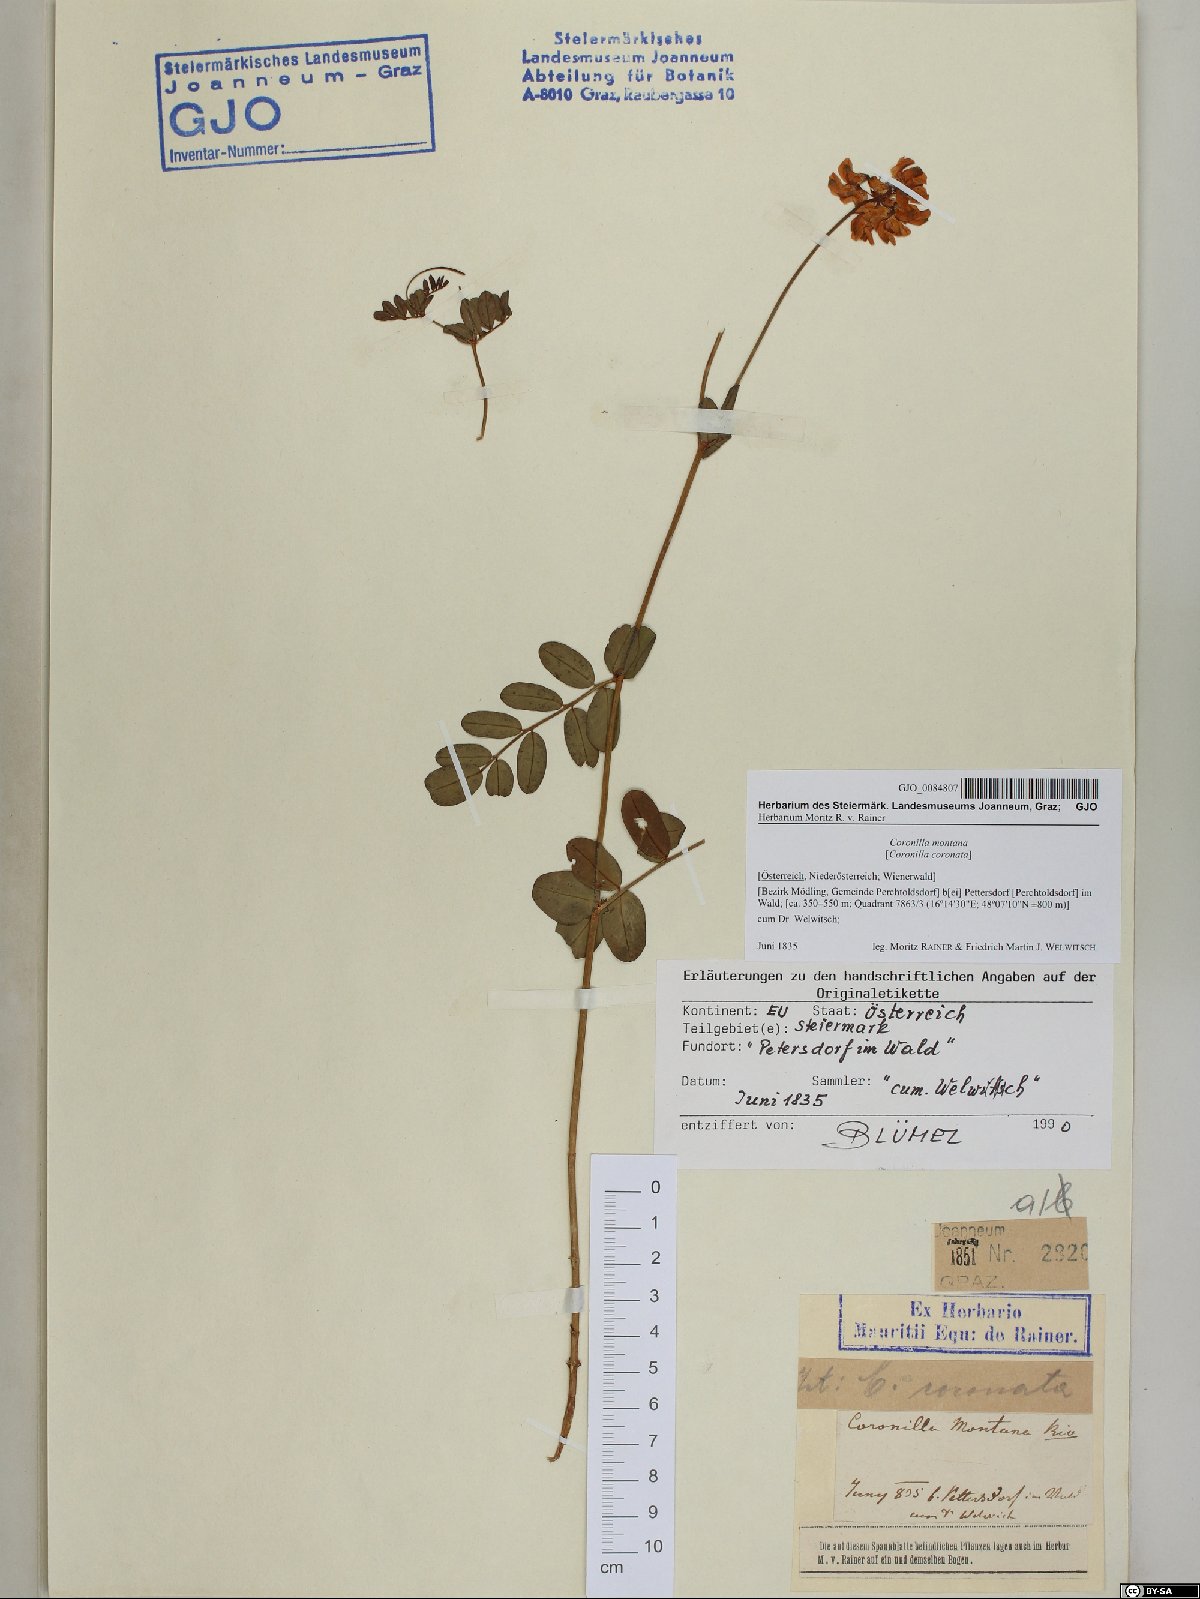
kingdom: Plantae
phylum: Tracheophyta
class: Magnoliopsida
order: Fabales
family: Fabaceae
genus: Coronilla
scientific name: Coronilla coronata
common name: Scorpion-vetch
